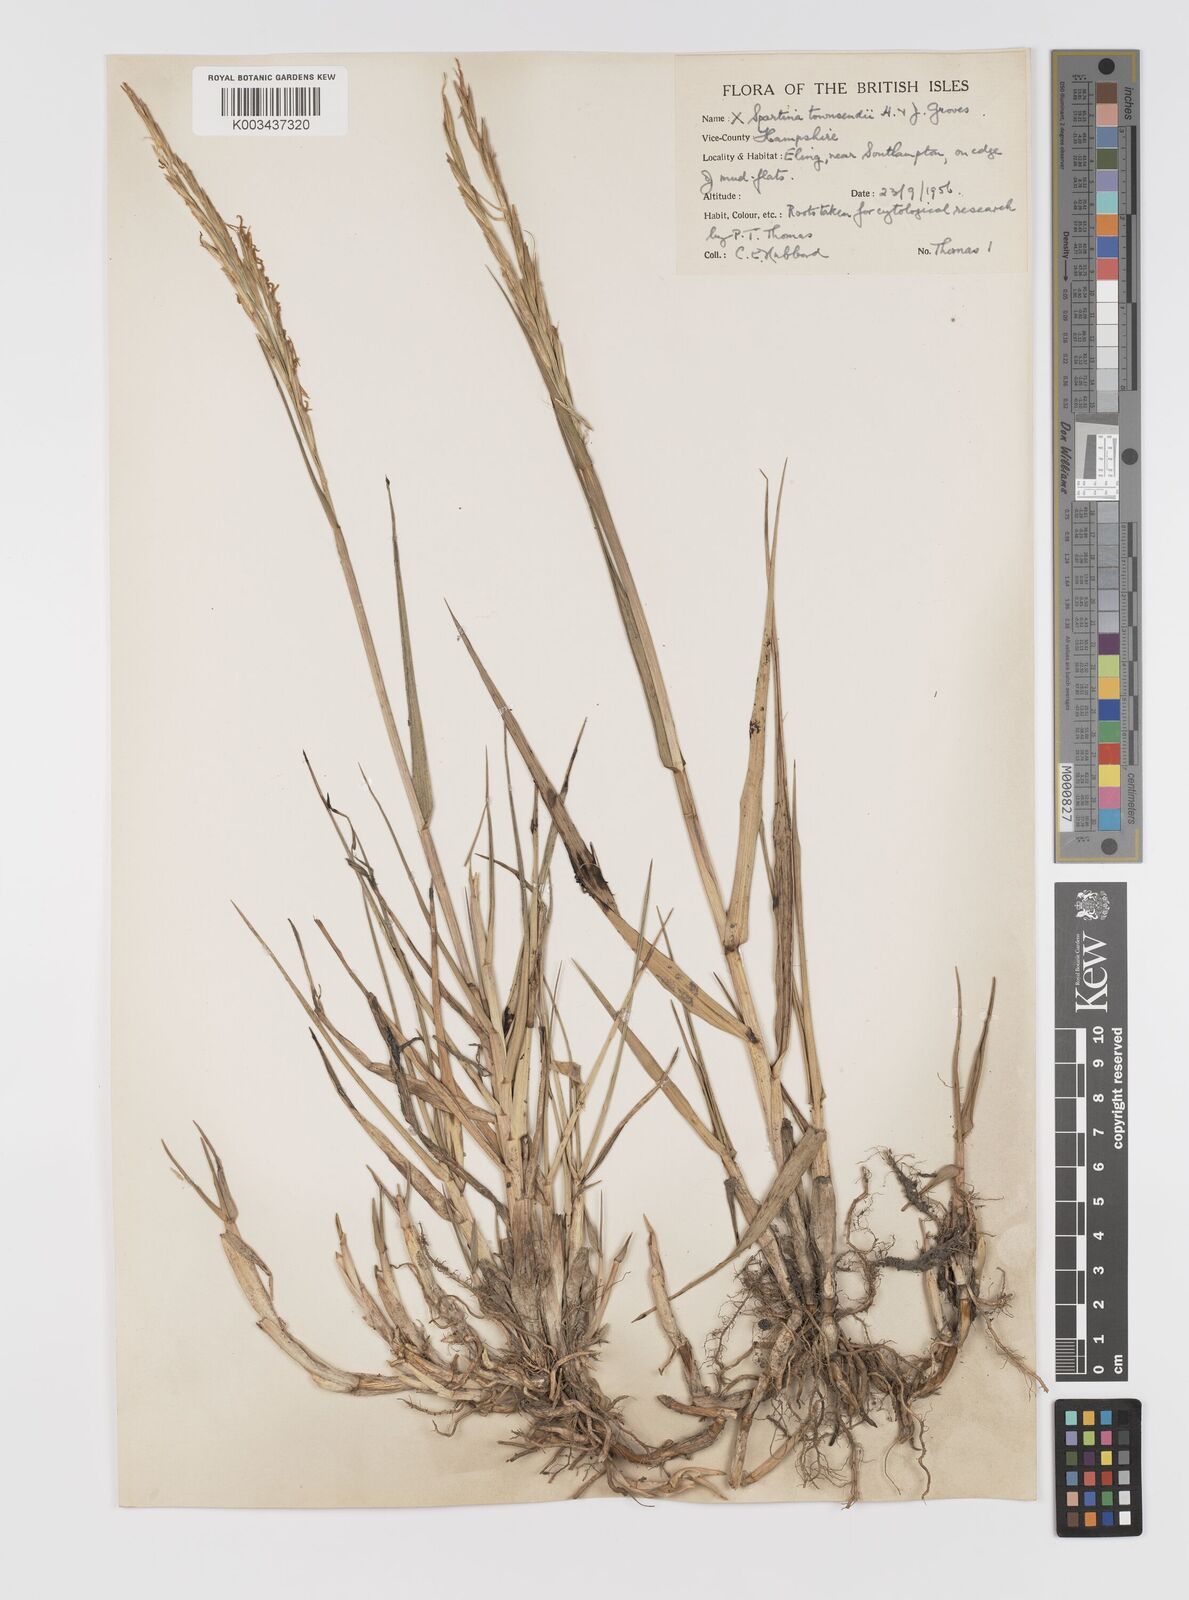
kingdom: Plantae
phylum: Tracheophyta
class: Liliopsida
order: Poales
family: Poaceae
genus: Sporobolus
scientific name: Sporobolus townsendii
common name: Townsend's cordgrass
